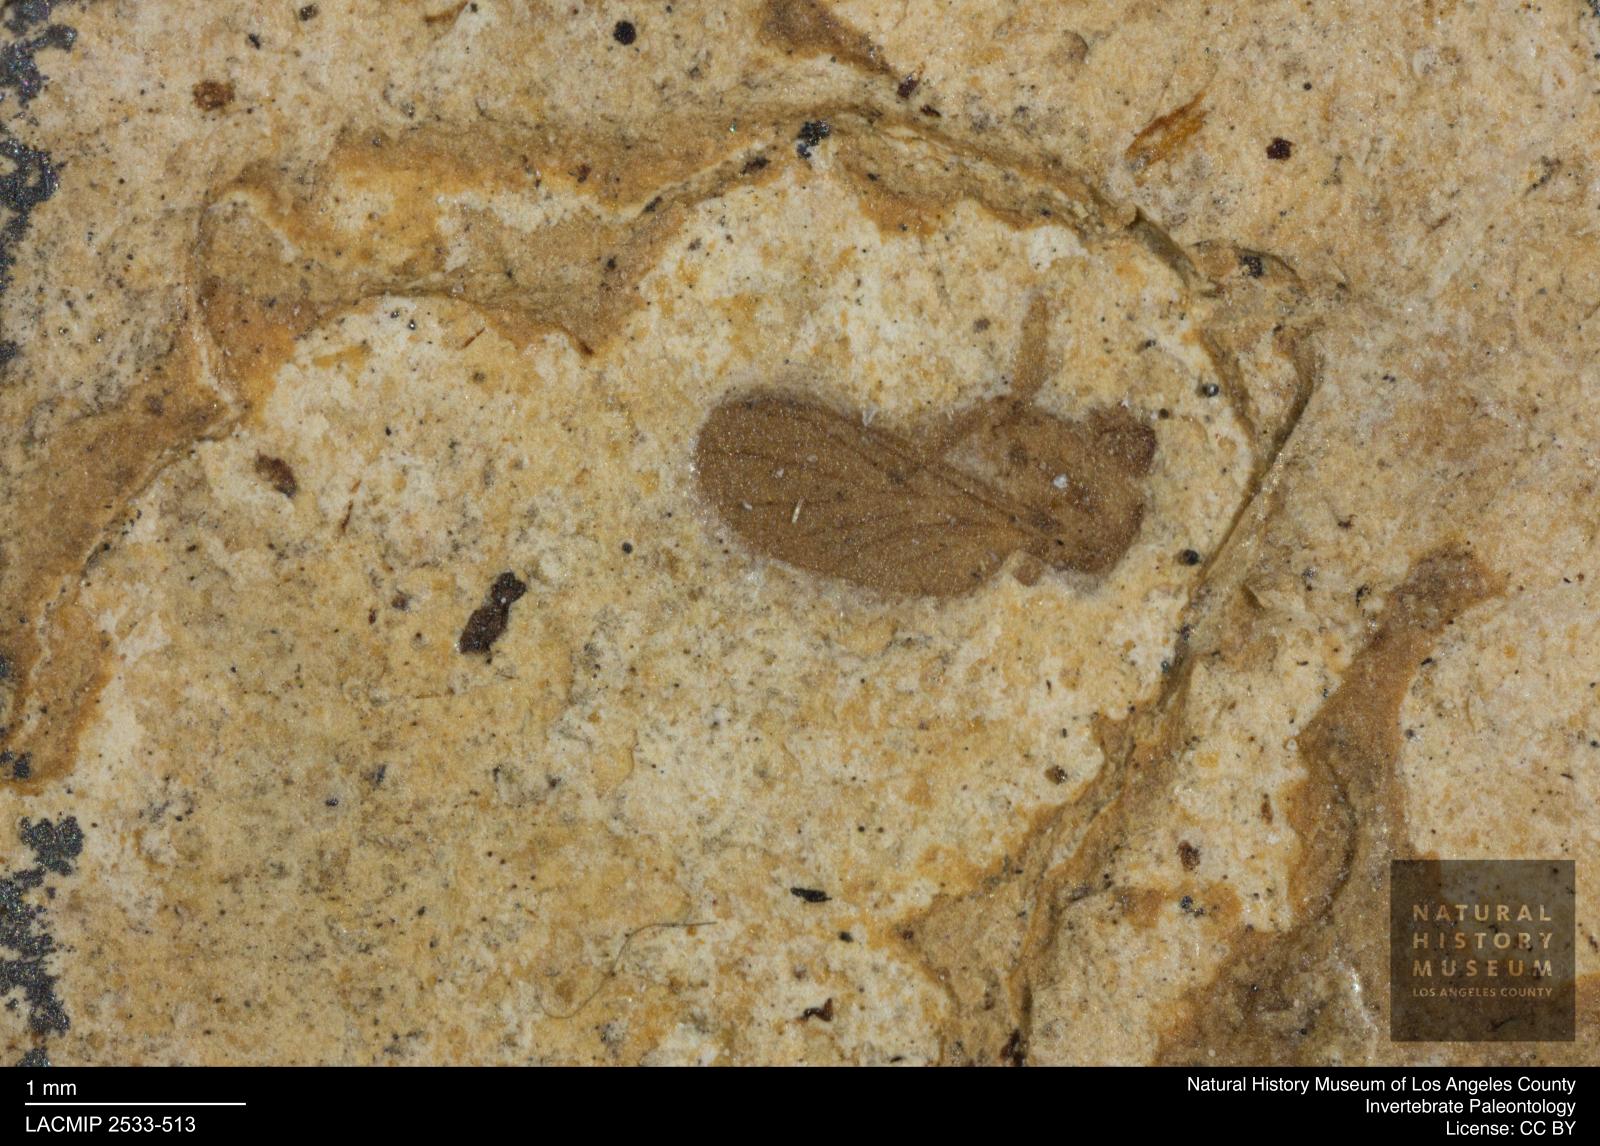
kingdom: Animalia
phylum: Arthropoda
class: Insecta
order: Diptera
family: Keroplatidae
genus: Asindulum
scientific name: Asindulum pygmaeum
